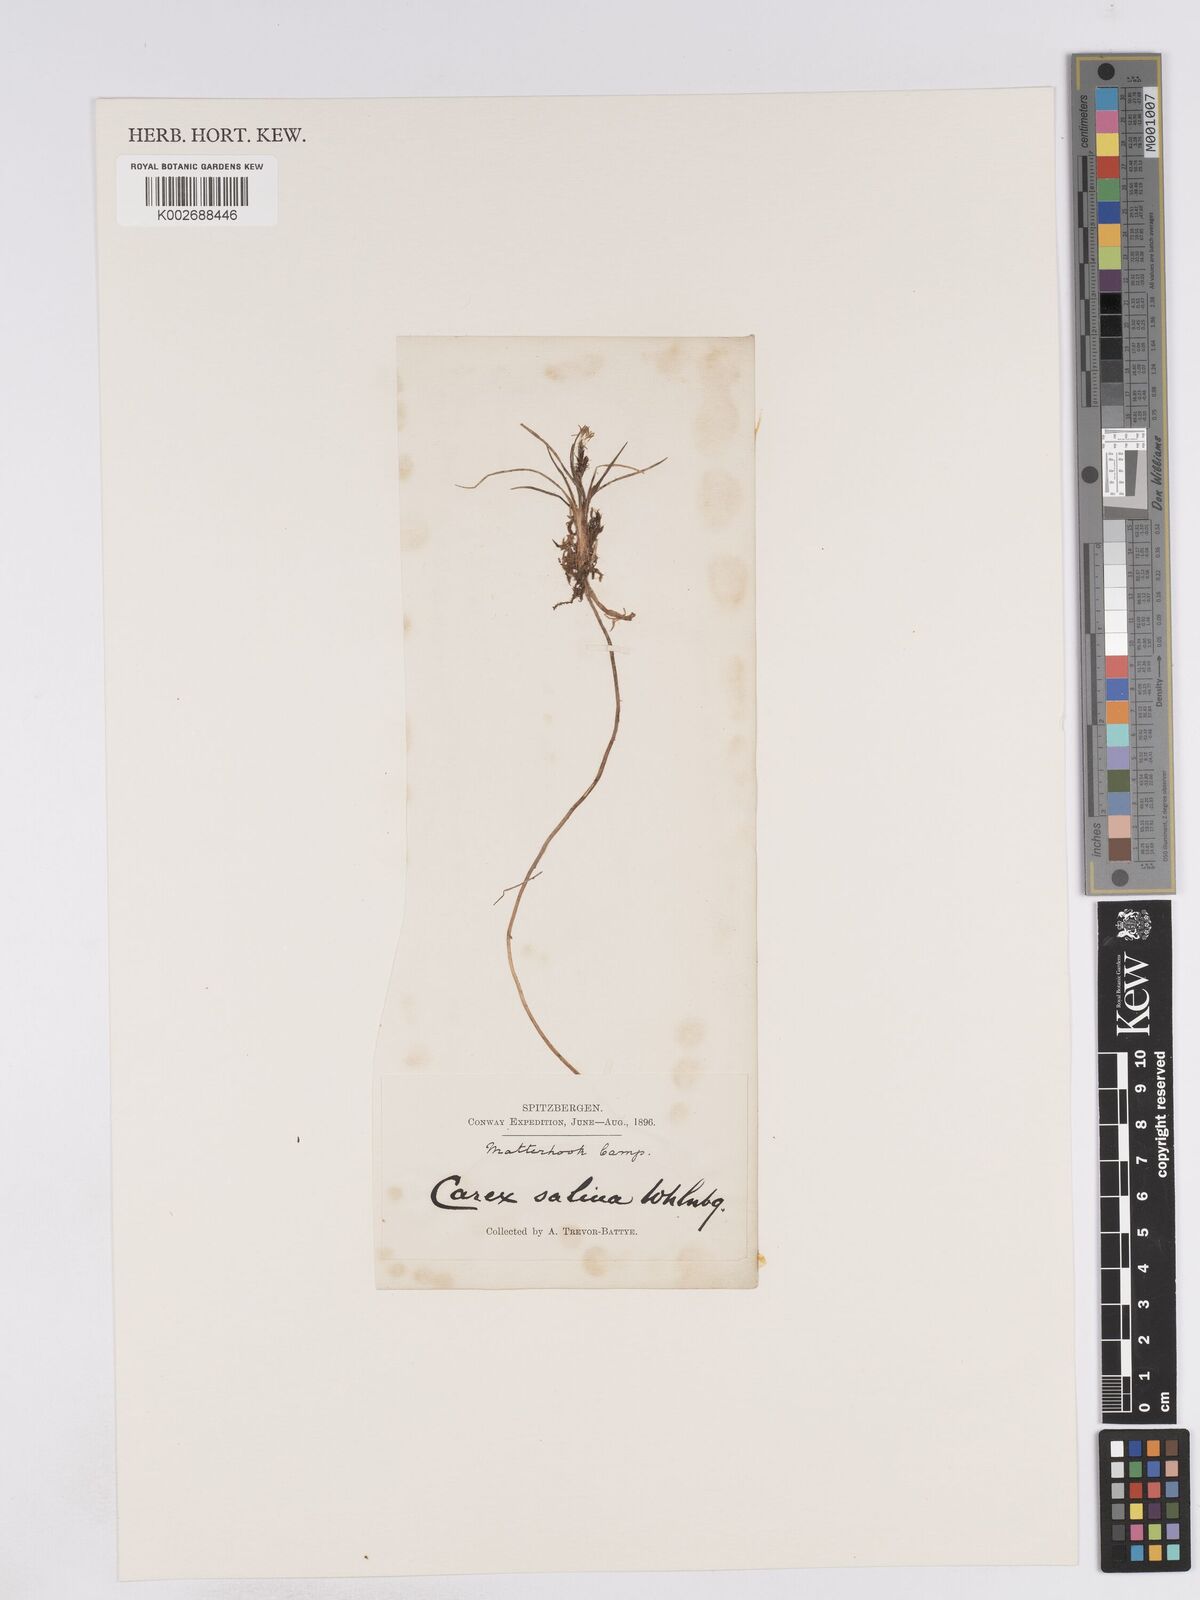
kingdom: Plantae
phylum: Tracheophyta
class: Liliopsida
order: Poales
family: Cyperaceae
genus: Carex
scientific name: Carex subspathacea
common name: Hoppner's sedge
